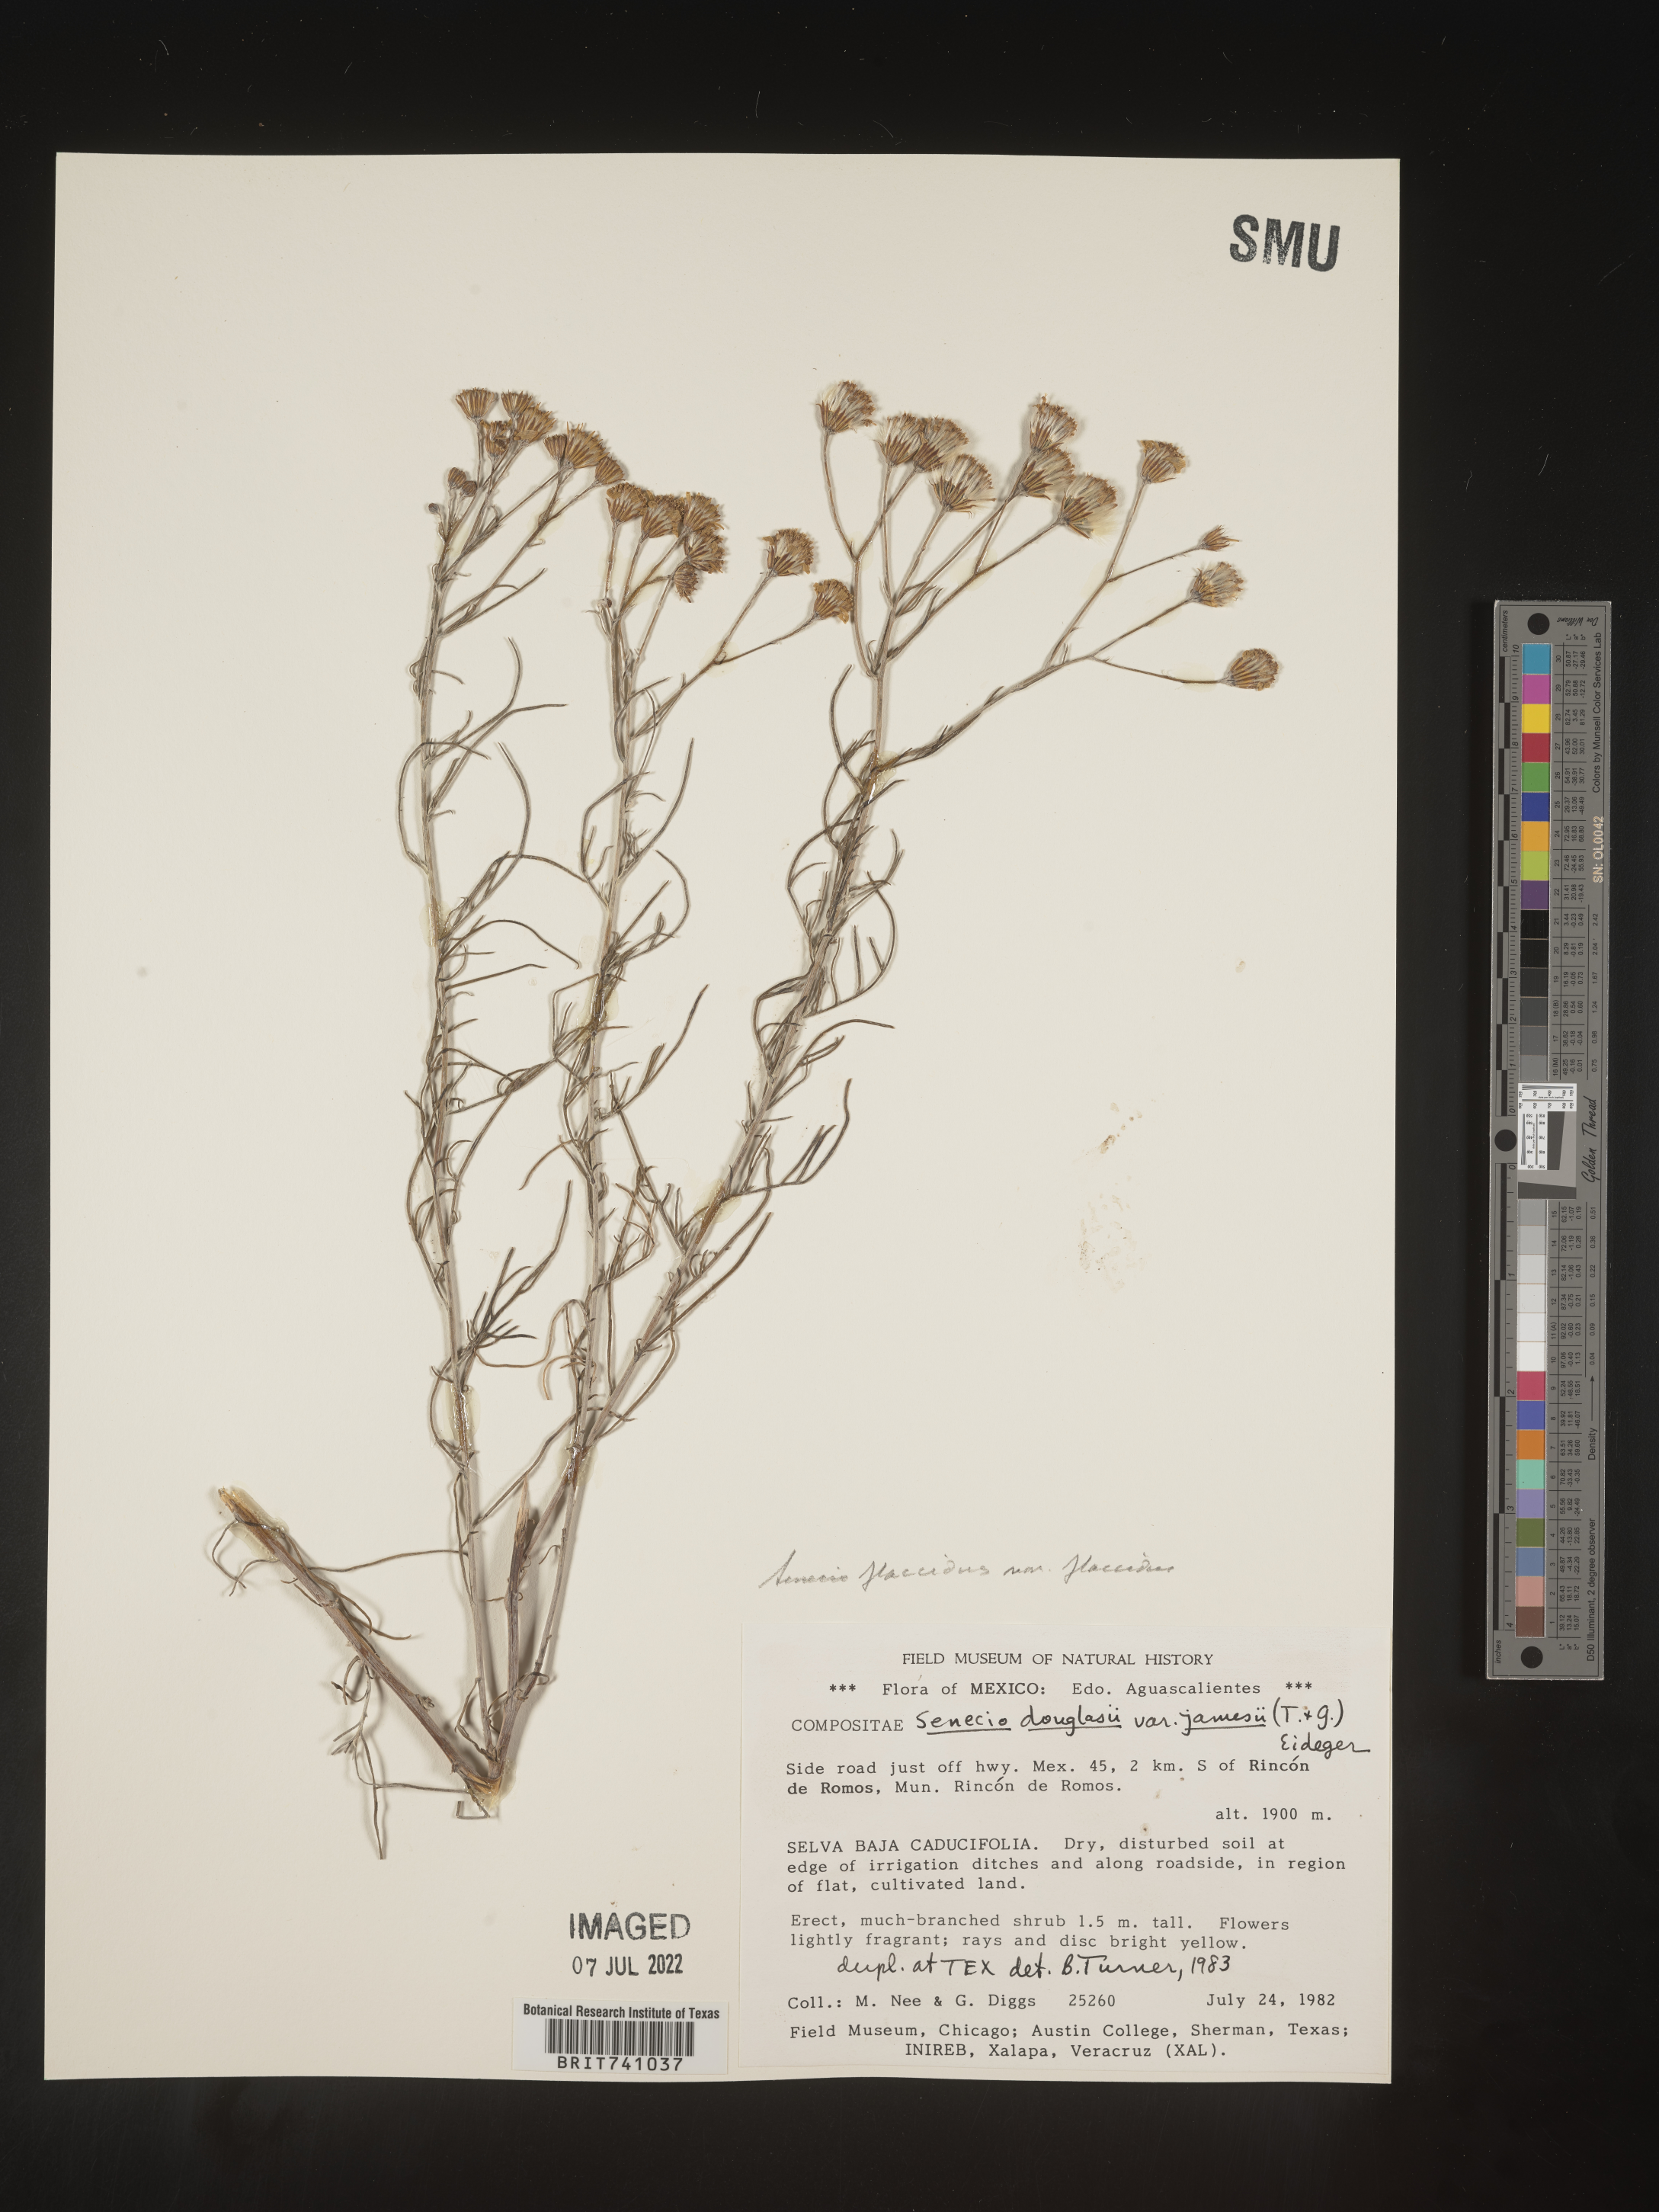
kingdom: Plantae
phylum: Tracheophyta
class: Magnoliopsida
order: Asterales
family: Asteraceae
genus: Senecio
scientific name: Senecio flaccidus
